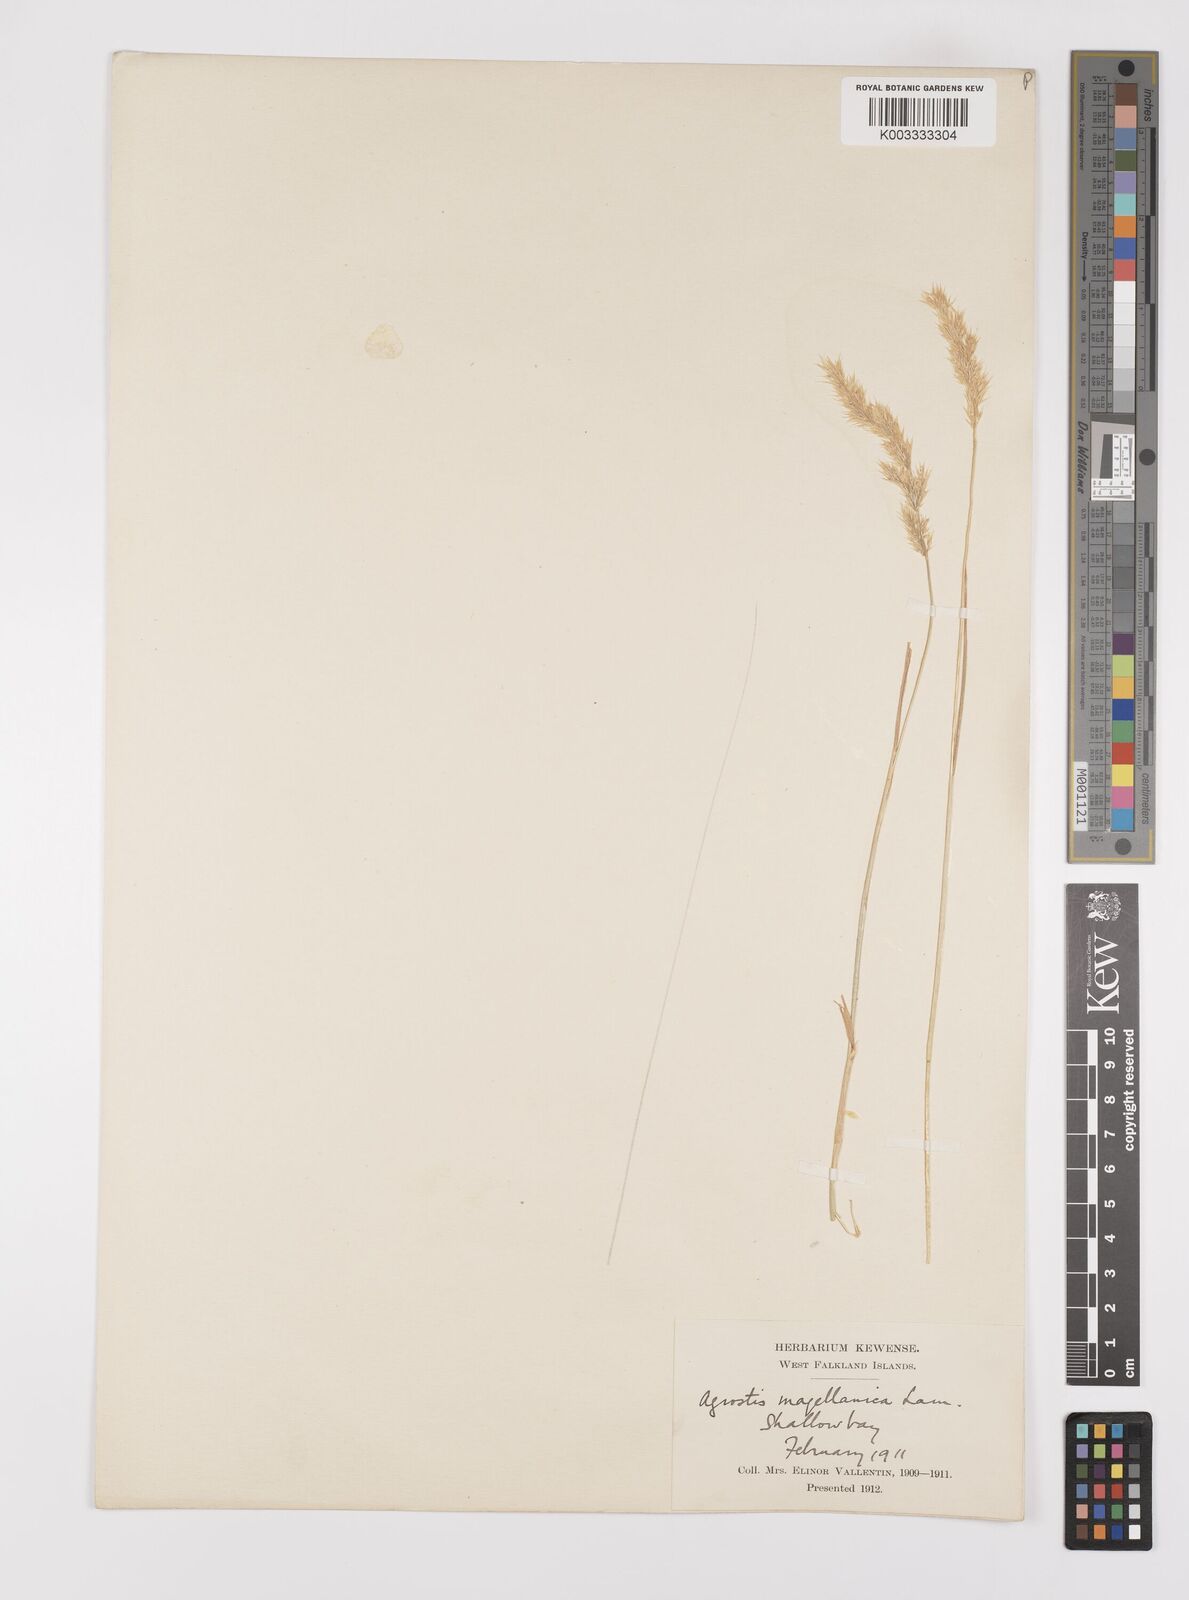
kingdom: Plantae
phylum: Tracheophyta
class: Liliopsida
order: Poales
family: Poaceae
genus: Polypogon
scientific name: Polypogon magellanicus
